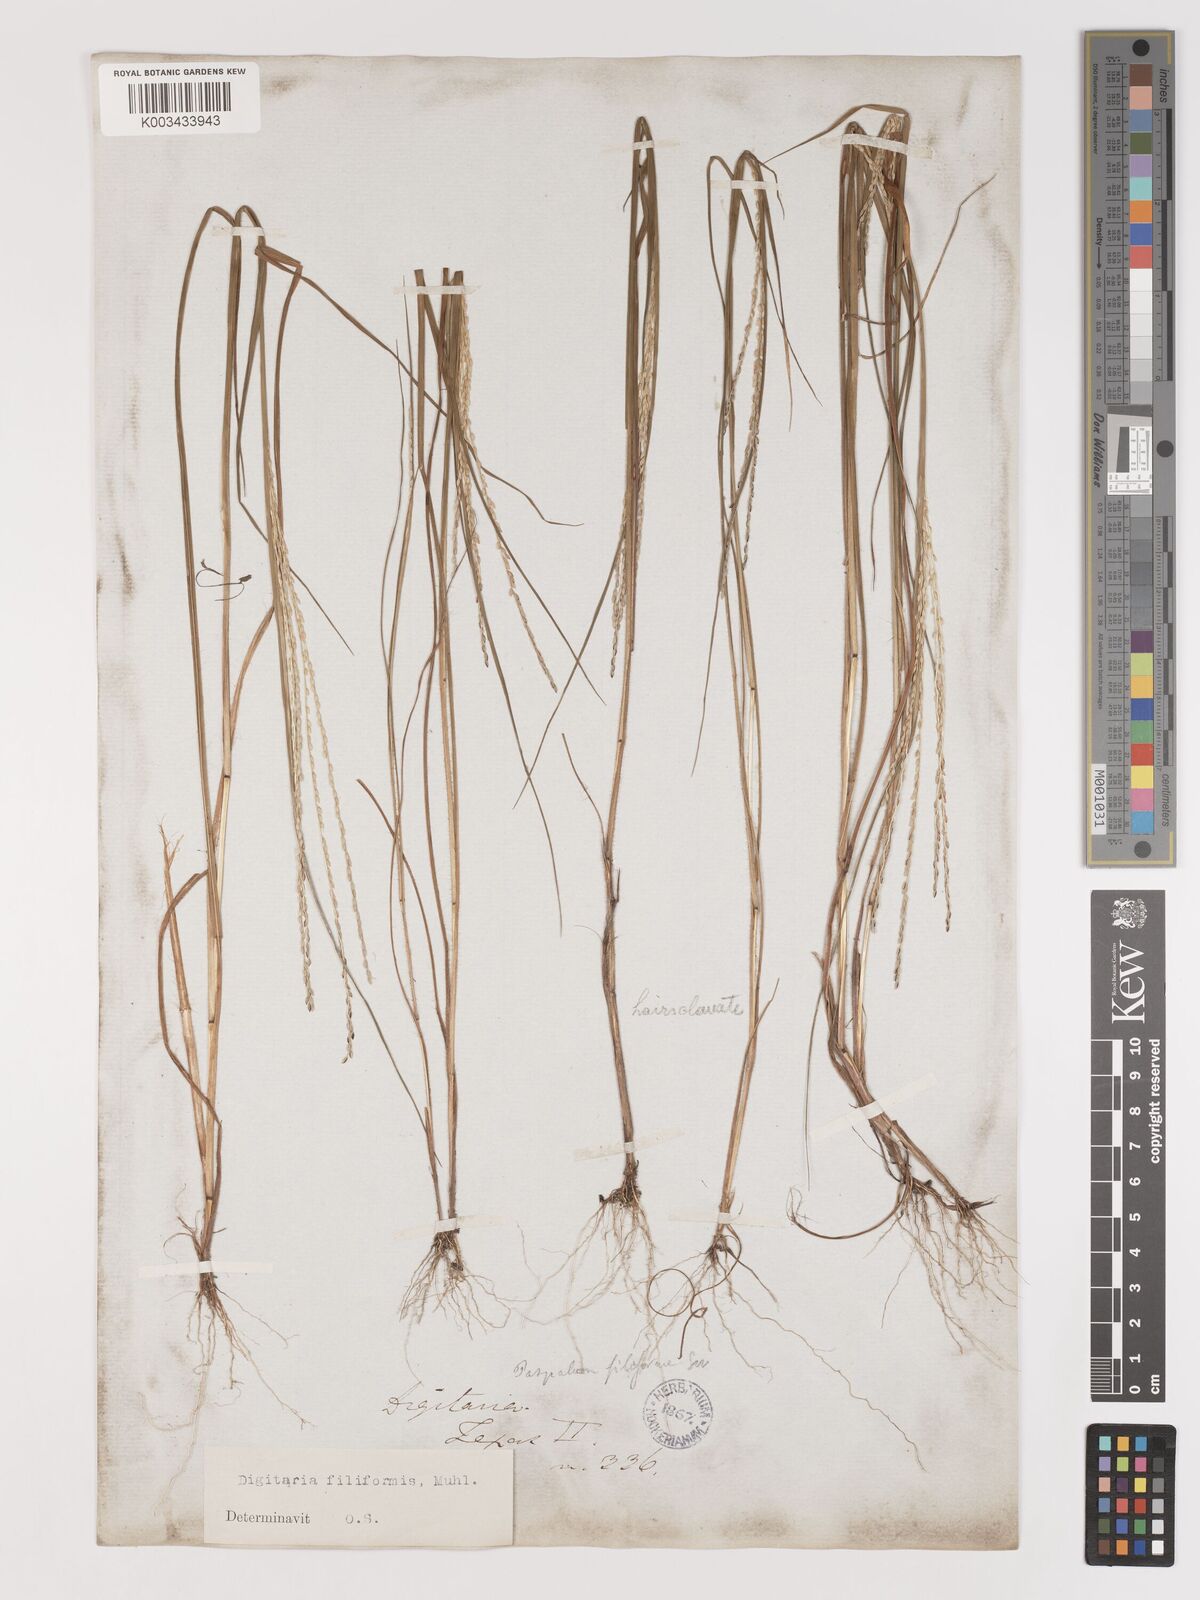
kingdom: Plantae
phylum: Tracheophyta
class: Liliopsida
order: Poales
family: Poaceae
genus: Digitaria
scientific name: Digitaria filiformis
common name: Slender crabgrass
